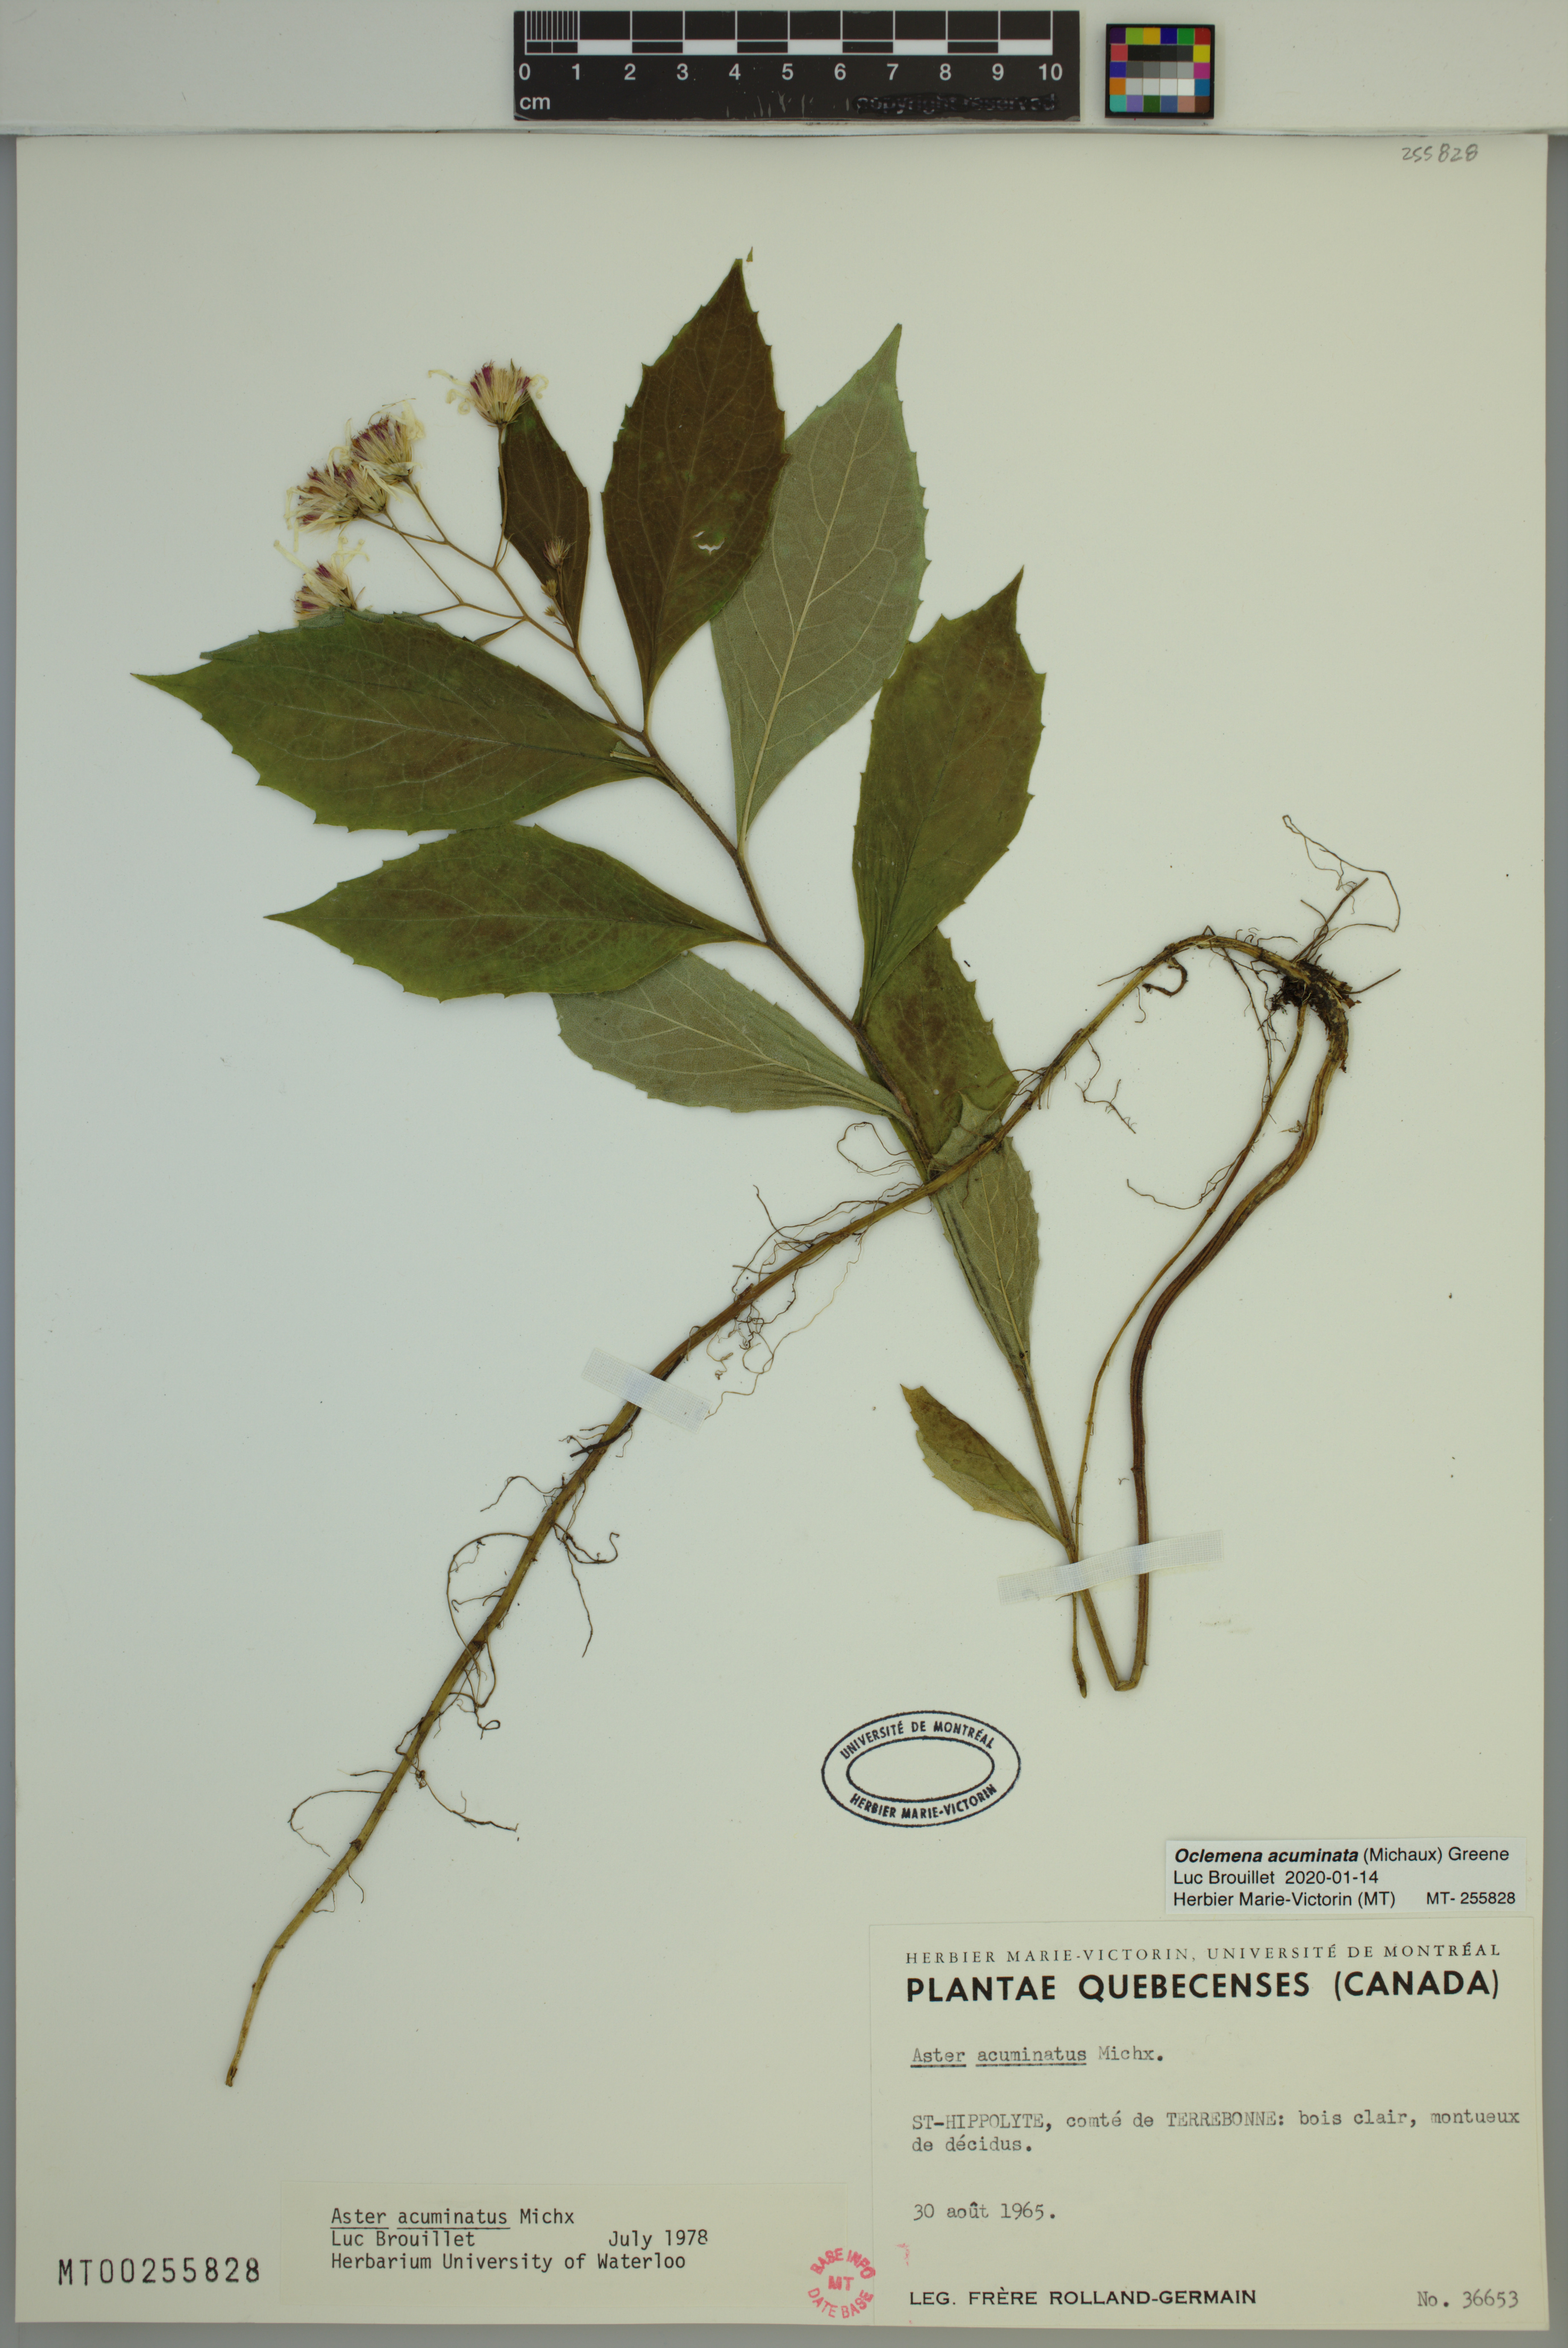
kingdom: Plantae
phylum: Tracheophyta
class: Magnoliopsida
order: Asterales
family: Asteraceae
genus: Oclemena
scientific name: Oclemena acuminata
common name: Mountain aster
